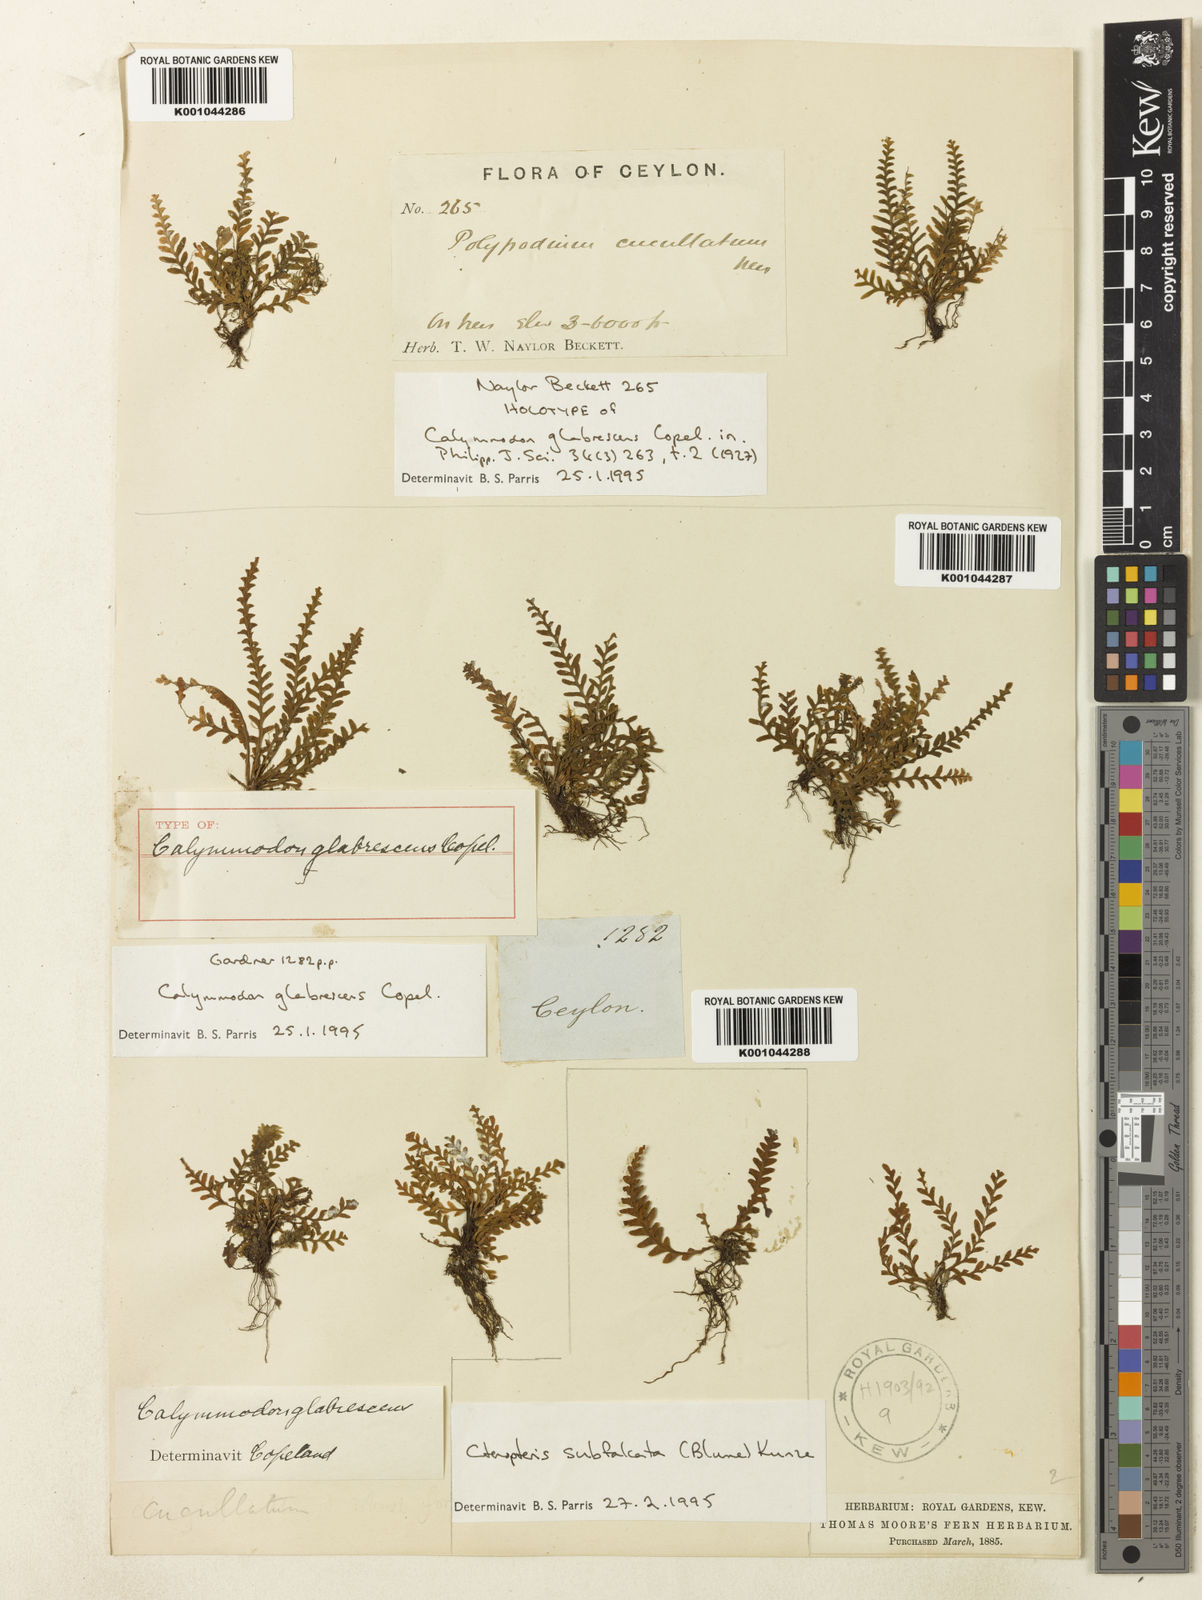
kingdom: Plantae
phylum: Tracheophyta
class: Polypodiopsida
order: Polypodiales
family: Polypodiaceae
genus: Calymmodon
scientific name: Calymmodon glabrescens
